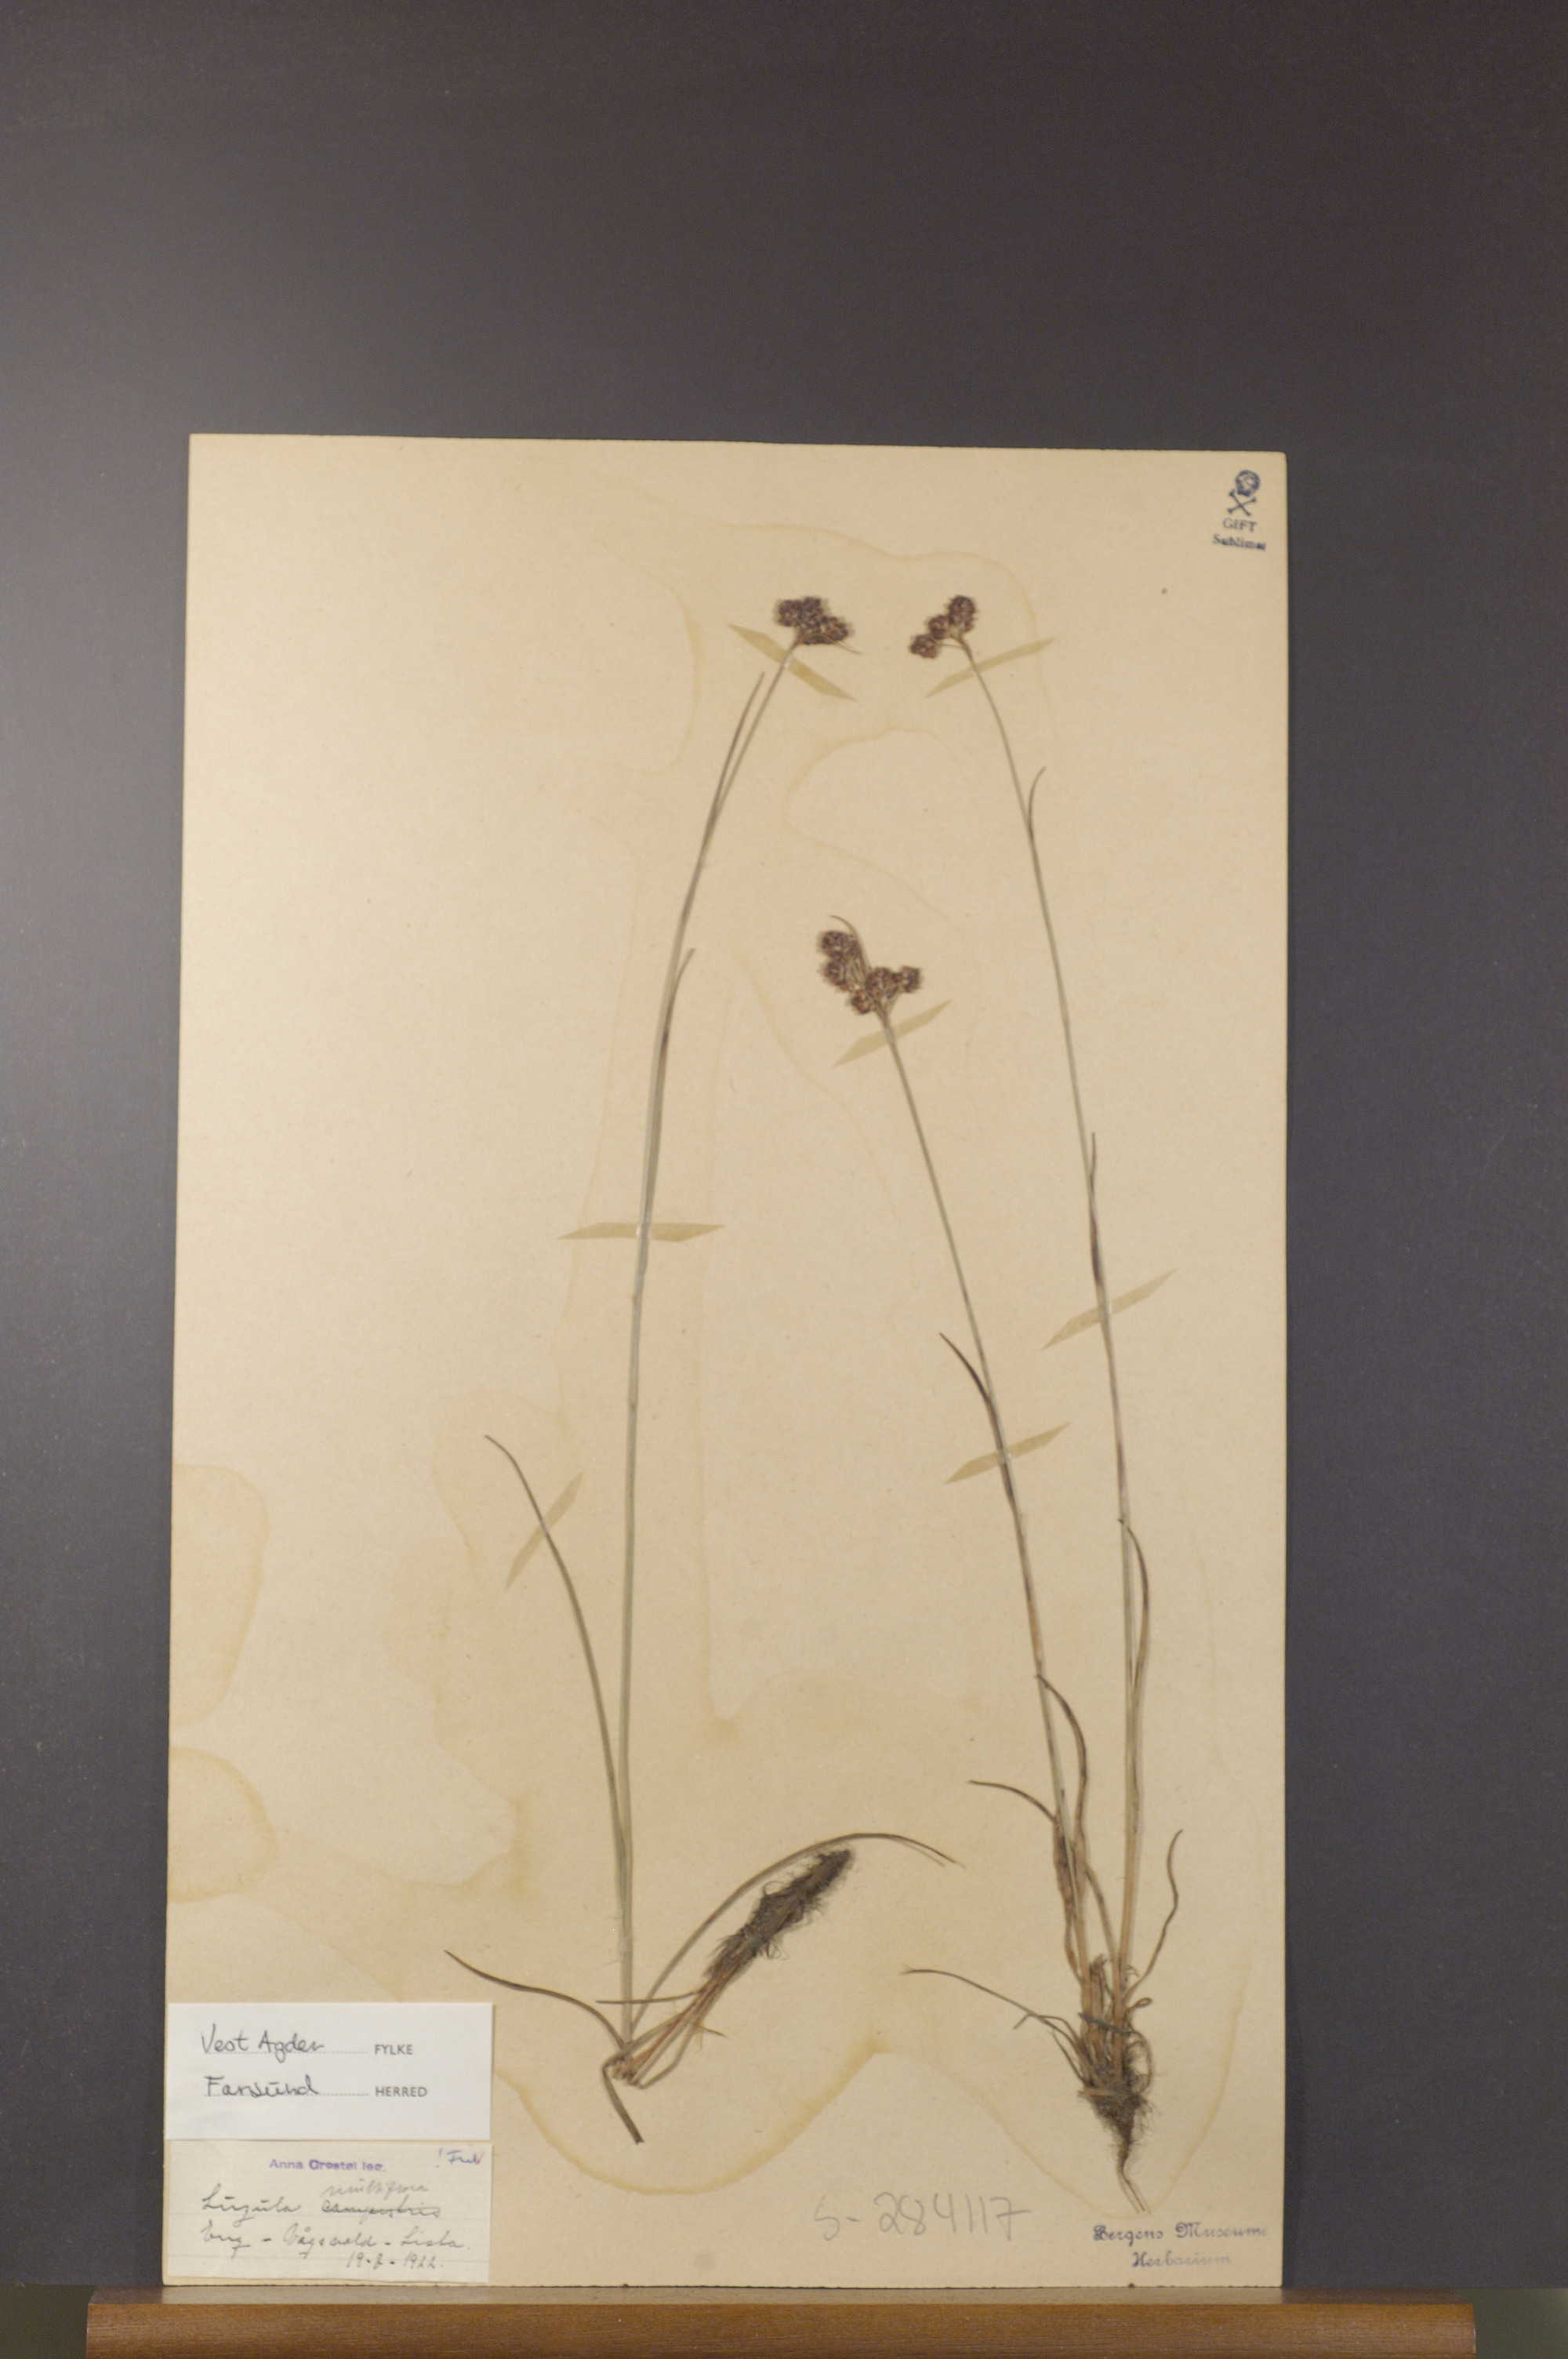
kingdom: Plantae
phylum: Tracheophyta
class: Liliopsida
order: Poales
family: Juncaceae
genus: Luzula
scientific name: Luzula multiflora
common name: Heath wood-rush
